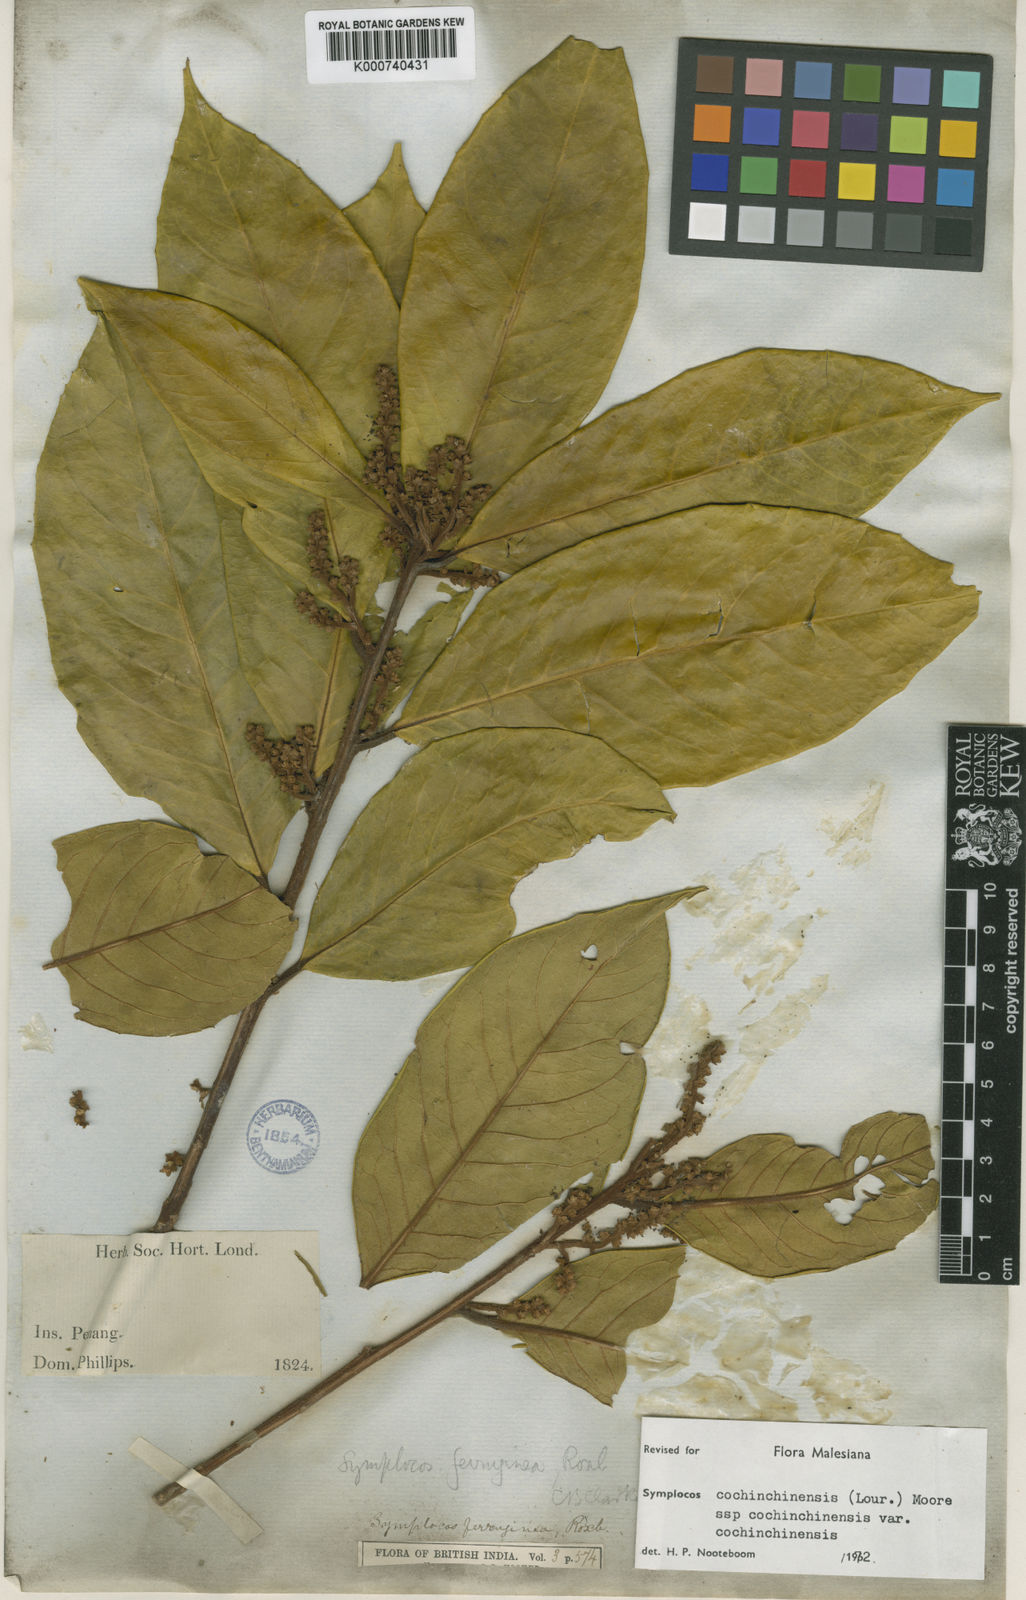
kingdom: Plantae
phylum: Tracheophyta
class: Magnoliopsida
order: Ericales
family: Symplocaceae
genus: Symplocos
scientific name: Symplocos cochinchinensis
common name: Buff hazelwood
